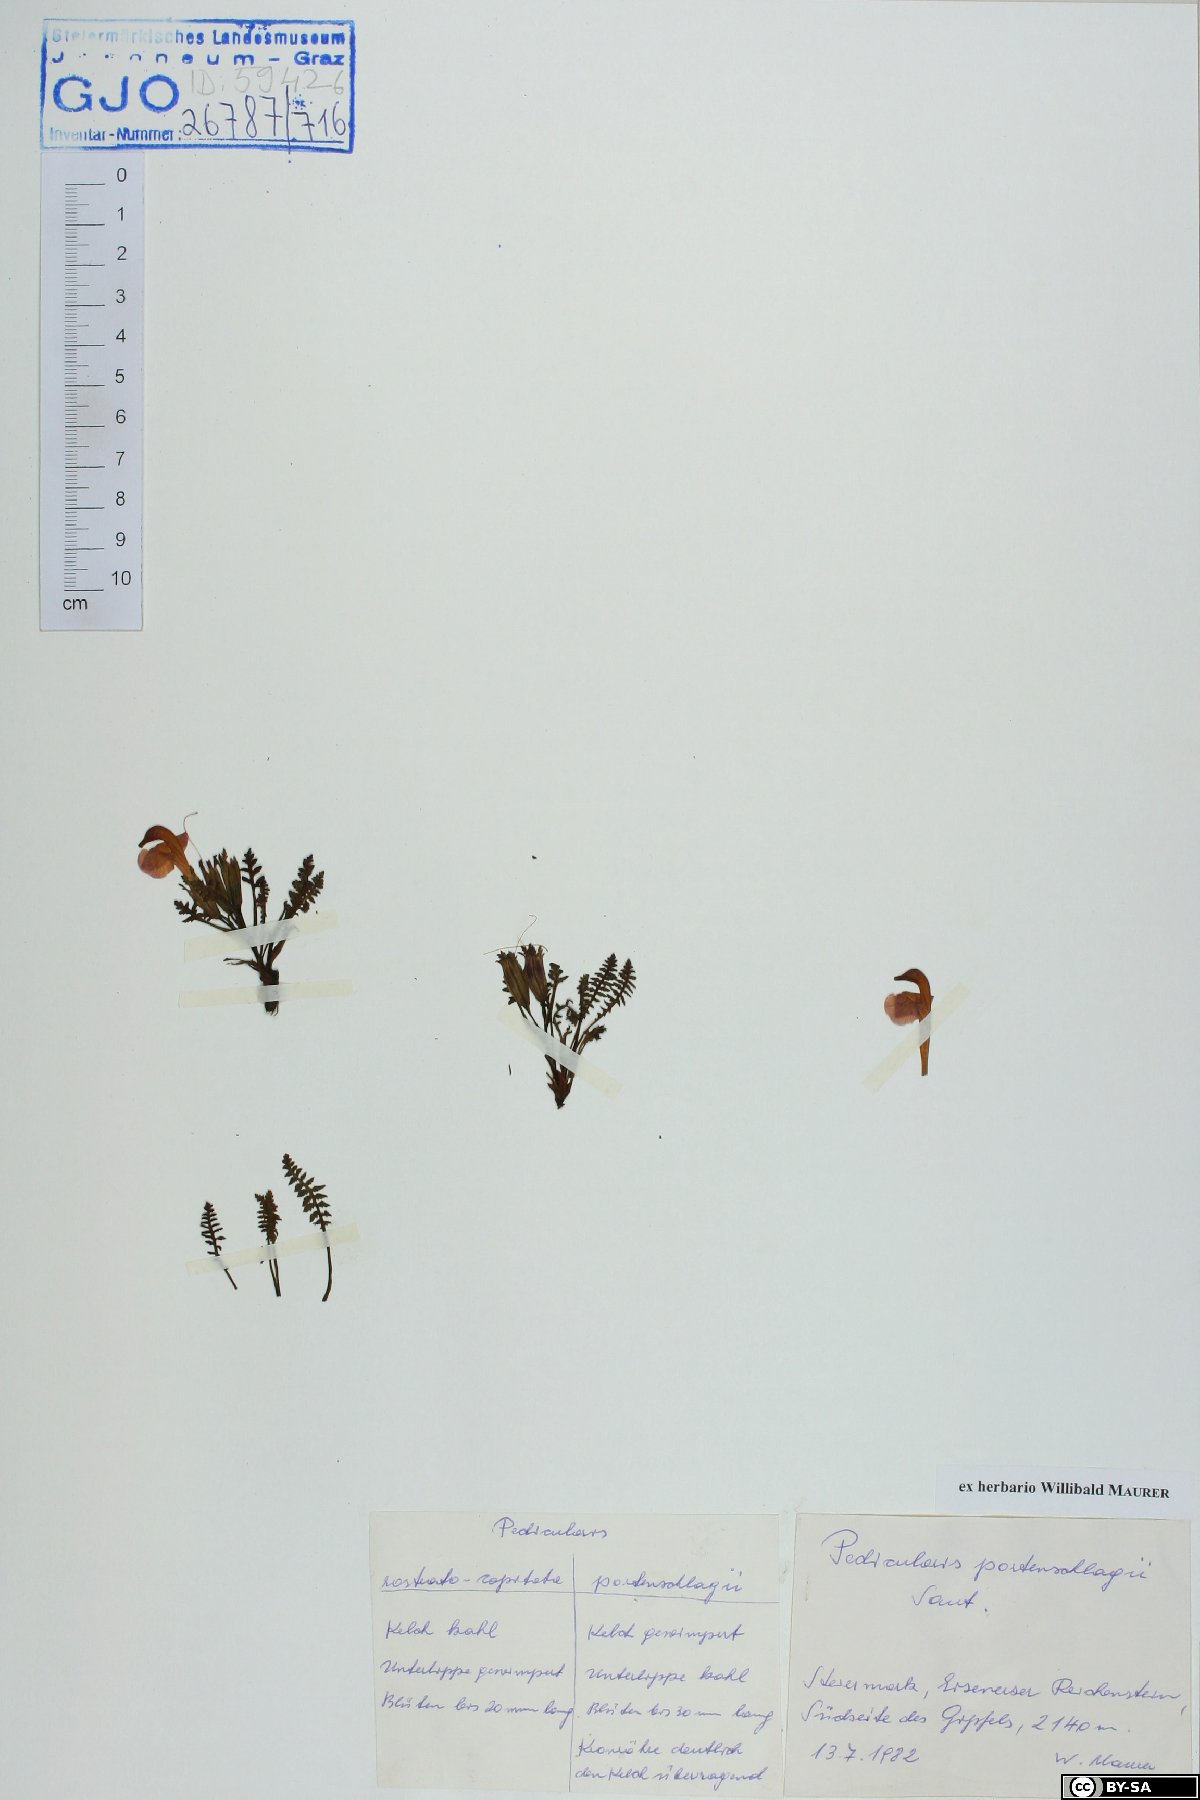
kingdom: Plantae
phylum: Tracheophyta
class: Magnoliopsida
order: Lamiales
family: Orobanchaceae
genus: Pedicularis
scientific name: Pedicularis portenschlagii
